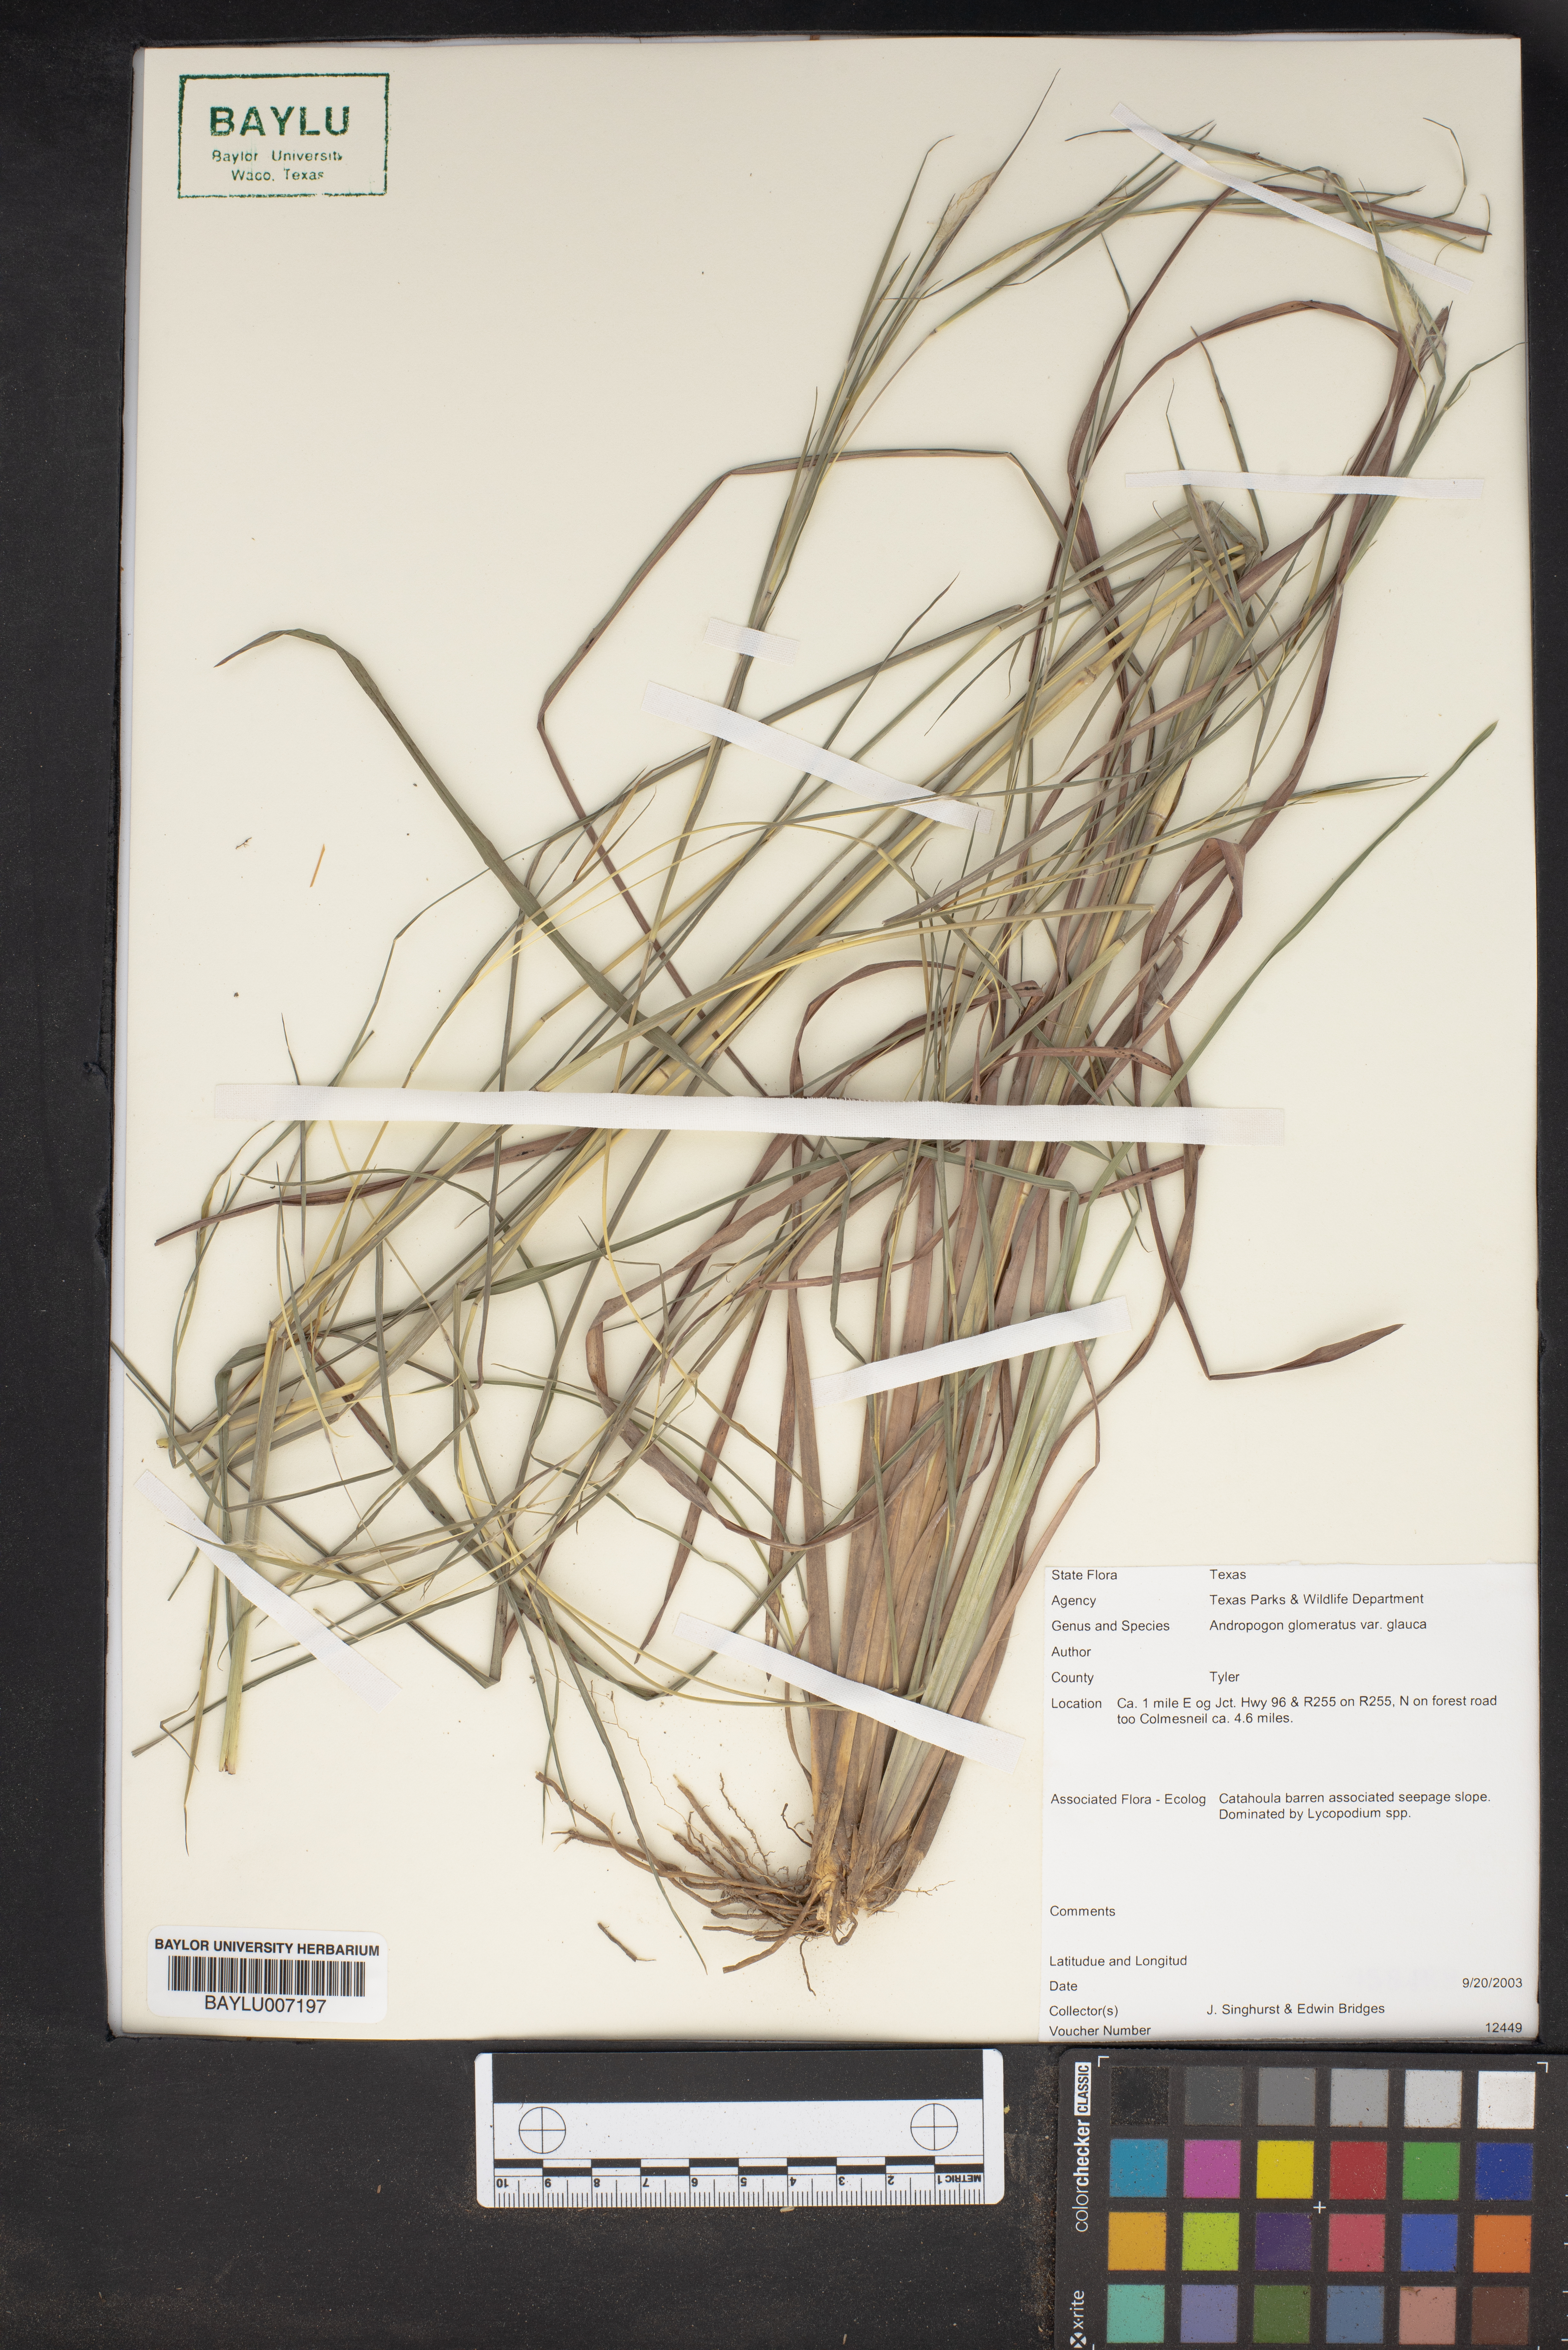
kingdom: Plantae
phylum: Tracheophyta
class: Liliopsida
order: Poales
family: Poaceae
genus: Andropogon
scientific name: Andropogon cretaceus
